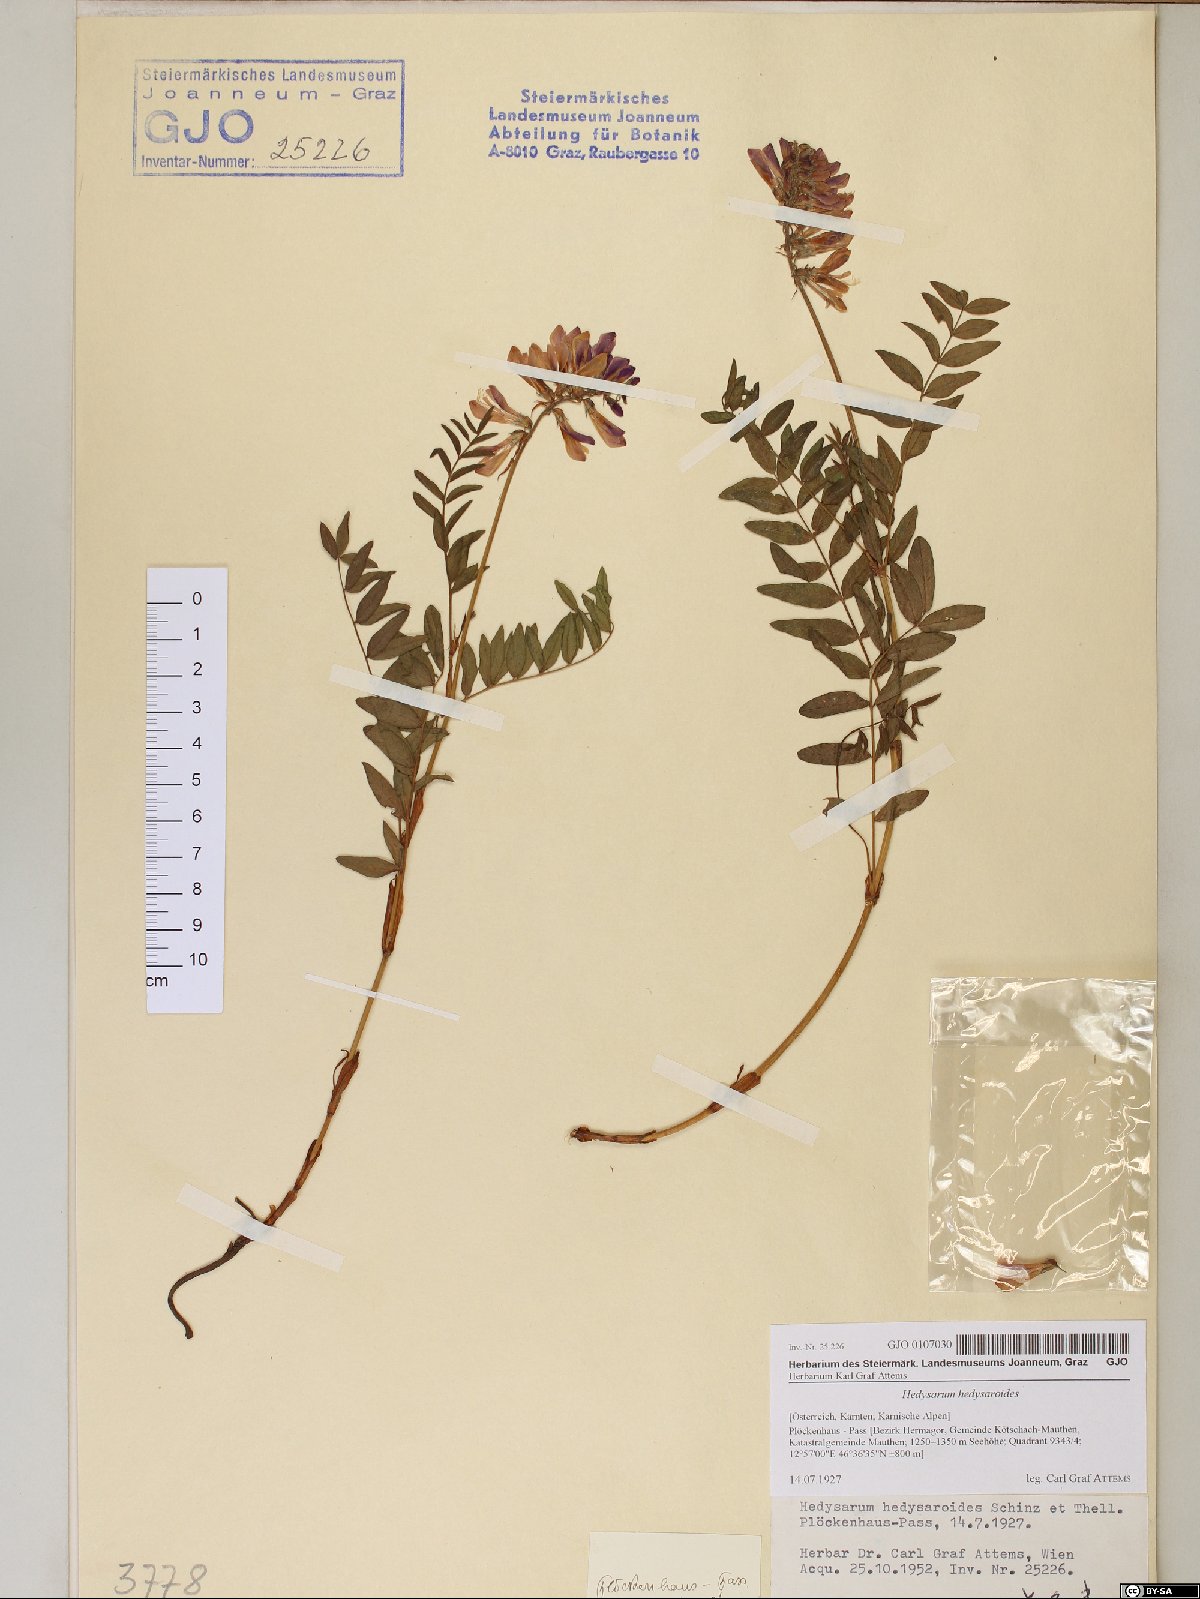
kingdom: Plantae
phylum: Tracheophyta
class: Magnoliopsida
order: Fabales
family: Fabaceae
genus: Hedysarum
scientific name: Hedysarum hedysaroides
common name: Alpine french-honeysuckle
